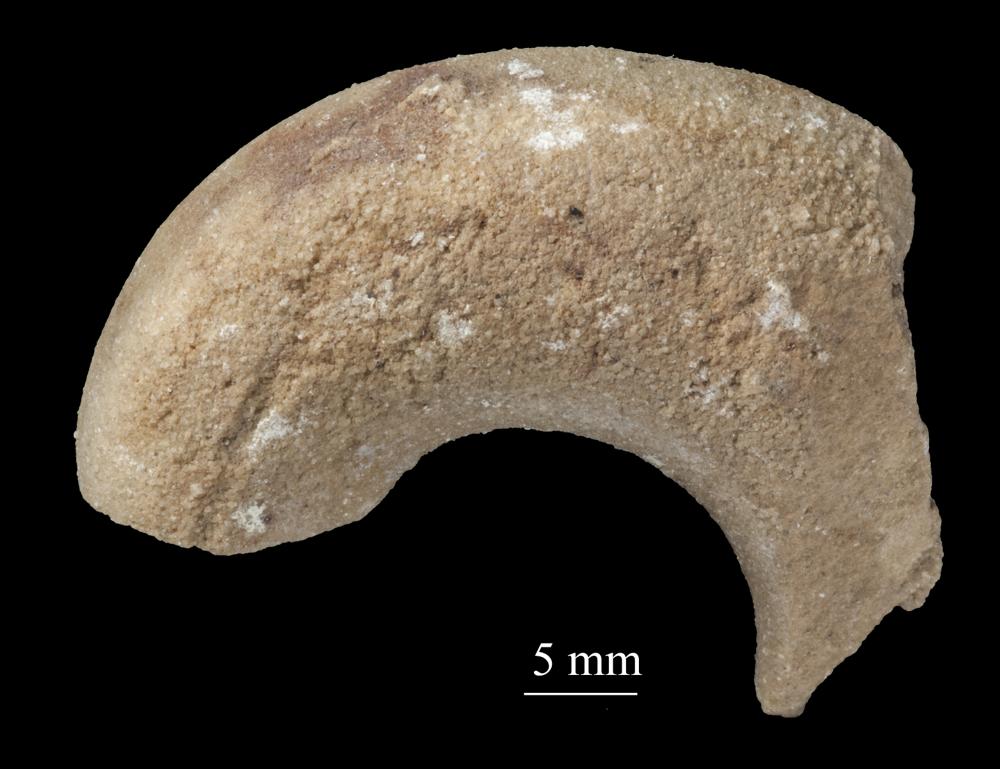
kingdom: Animalia
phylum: Mollusca
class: Gastropoda
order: Pleurotomariida
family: Phymatopleuridae
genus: Worthenia
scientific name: Worthenia
